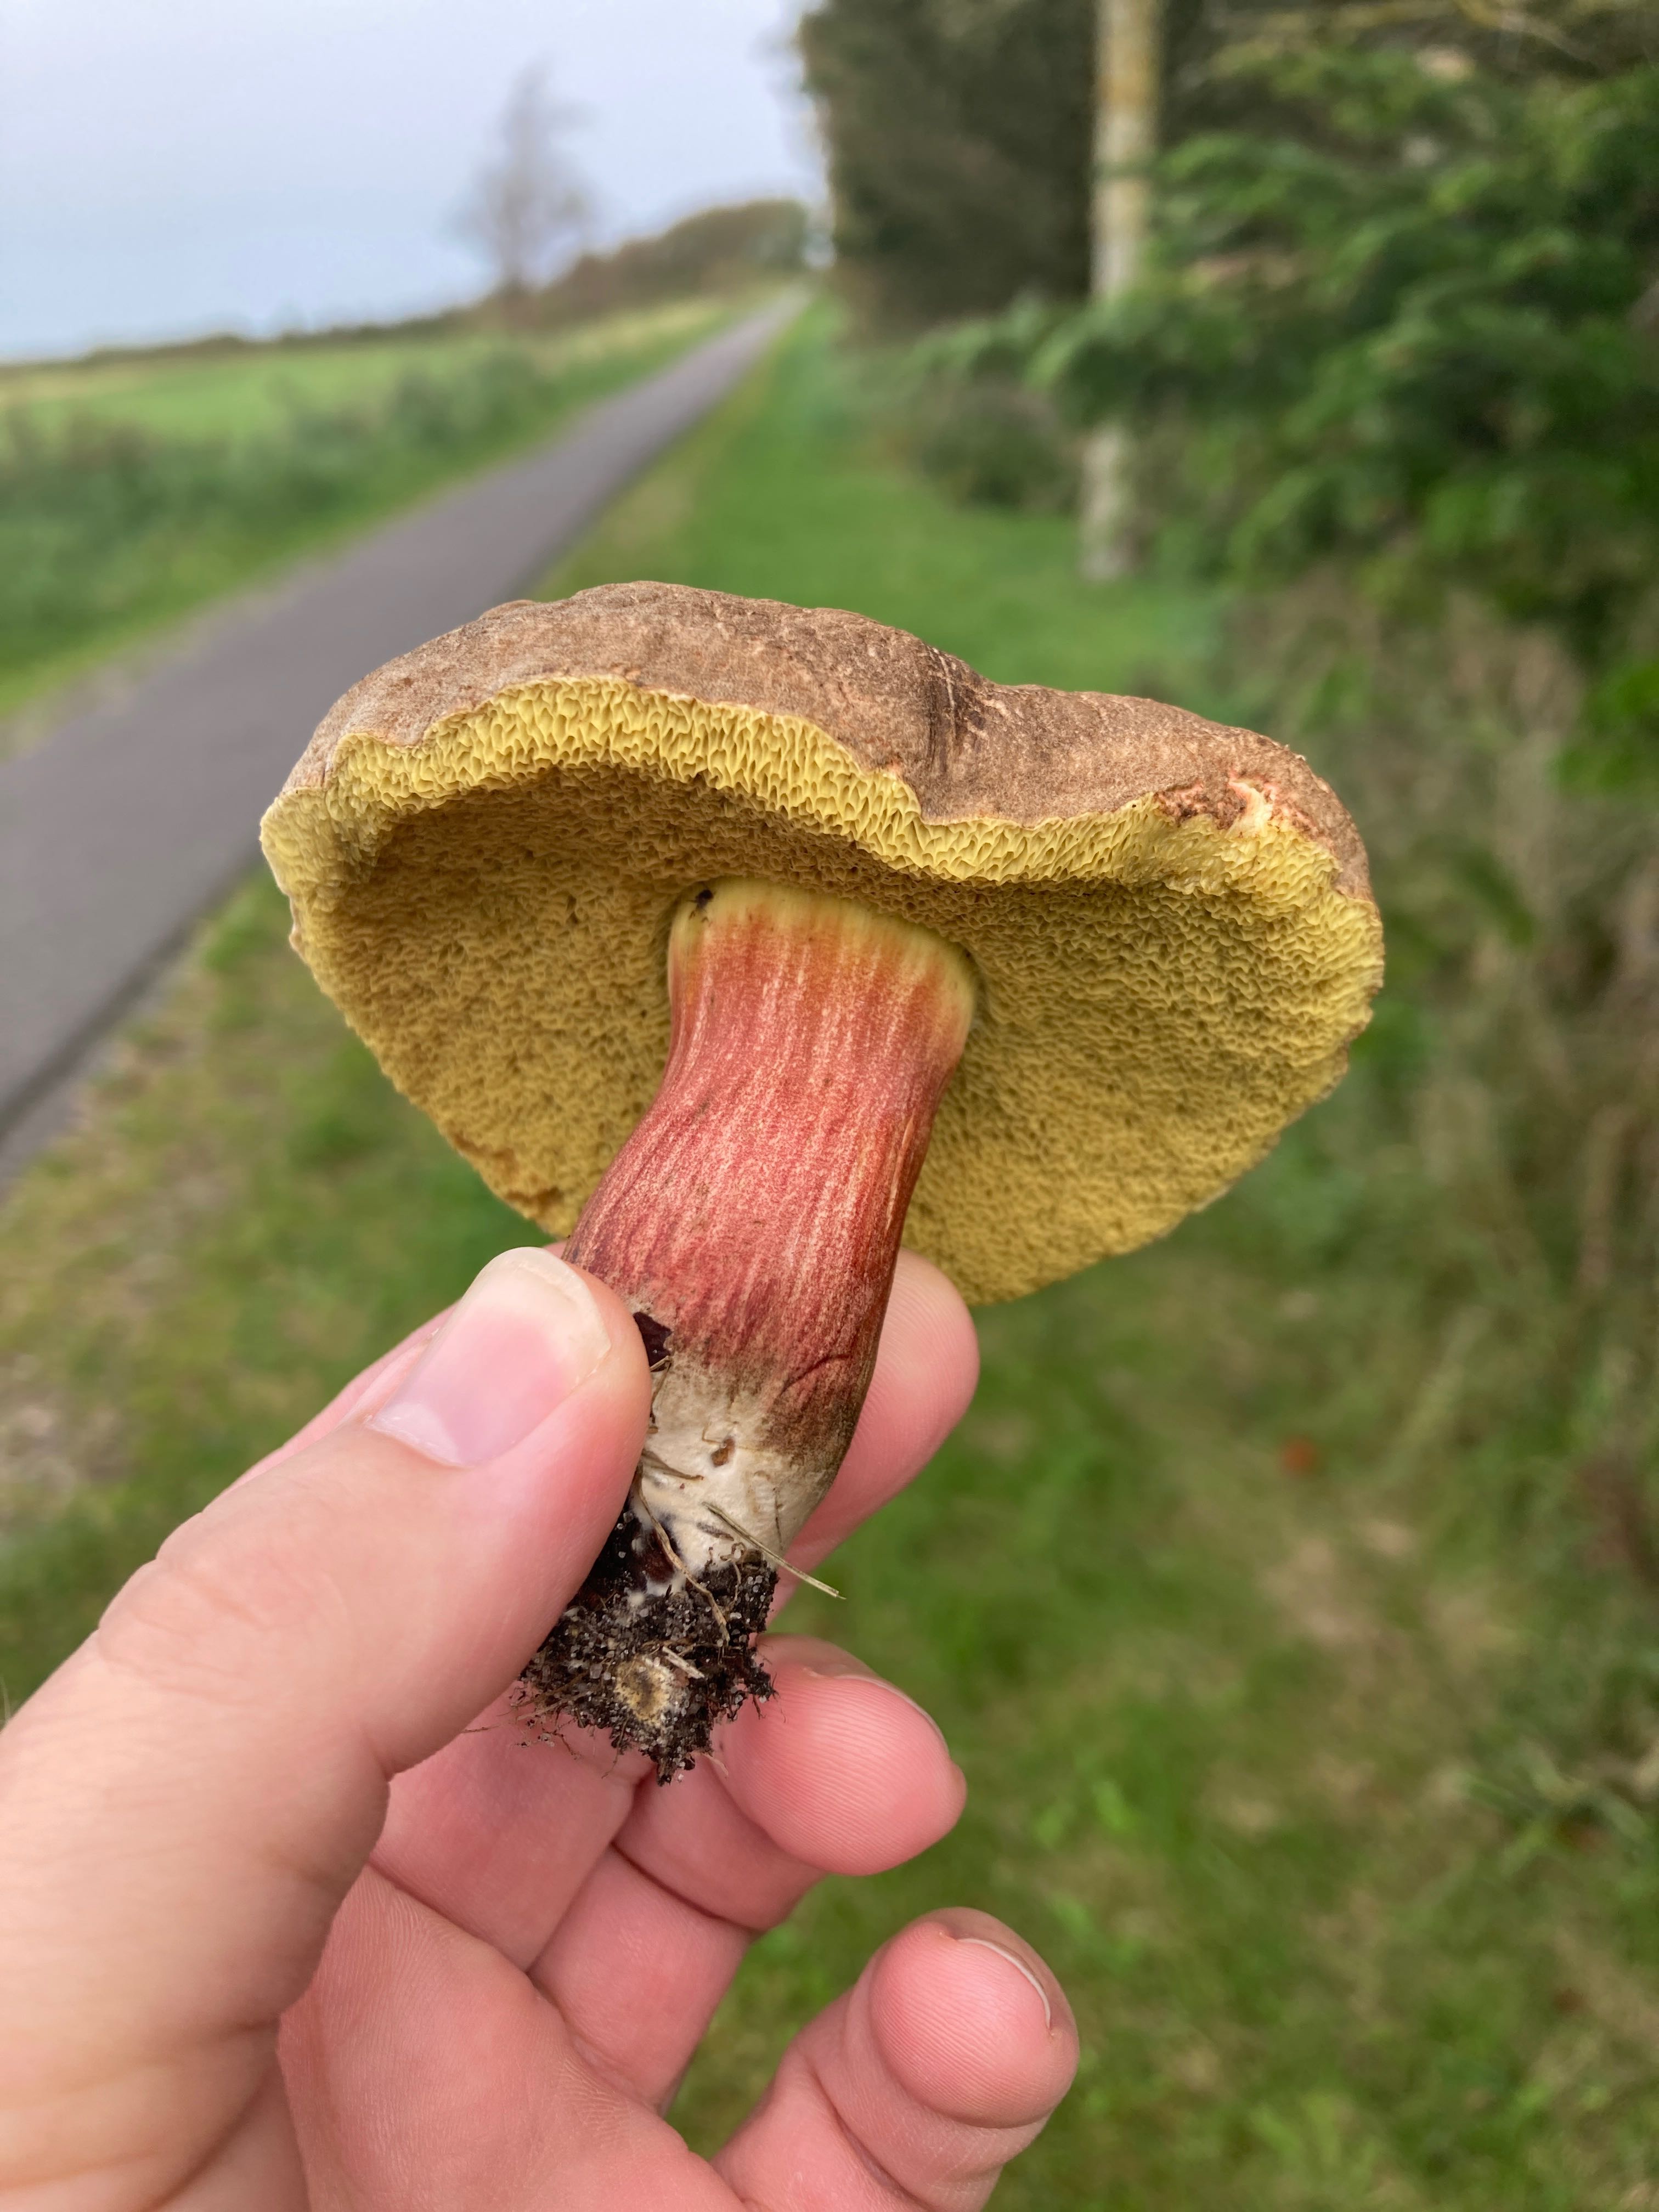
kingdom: Fungi
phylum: Basidiomycota
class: Agaricomycetes
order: Boletales
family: Boletaceae
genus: Xerocomellus
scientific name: Xerocomellus
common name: dværgrørhat
